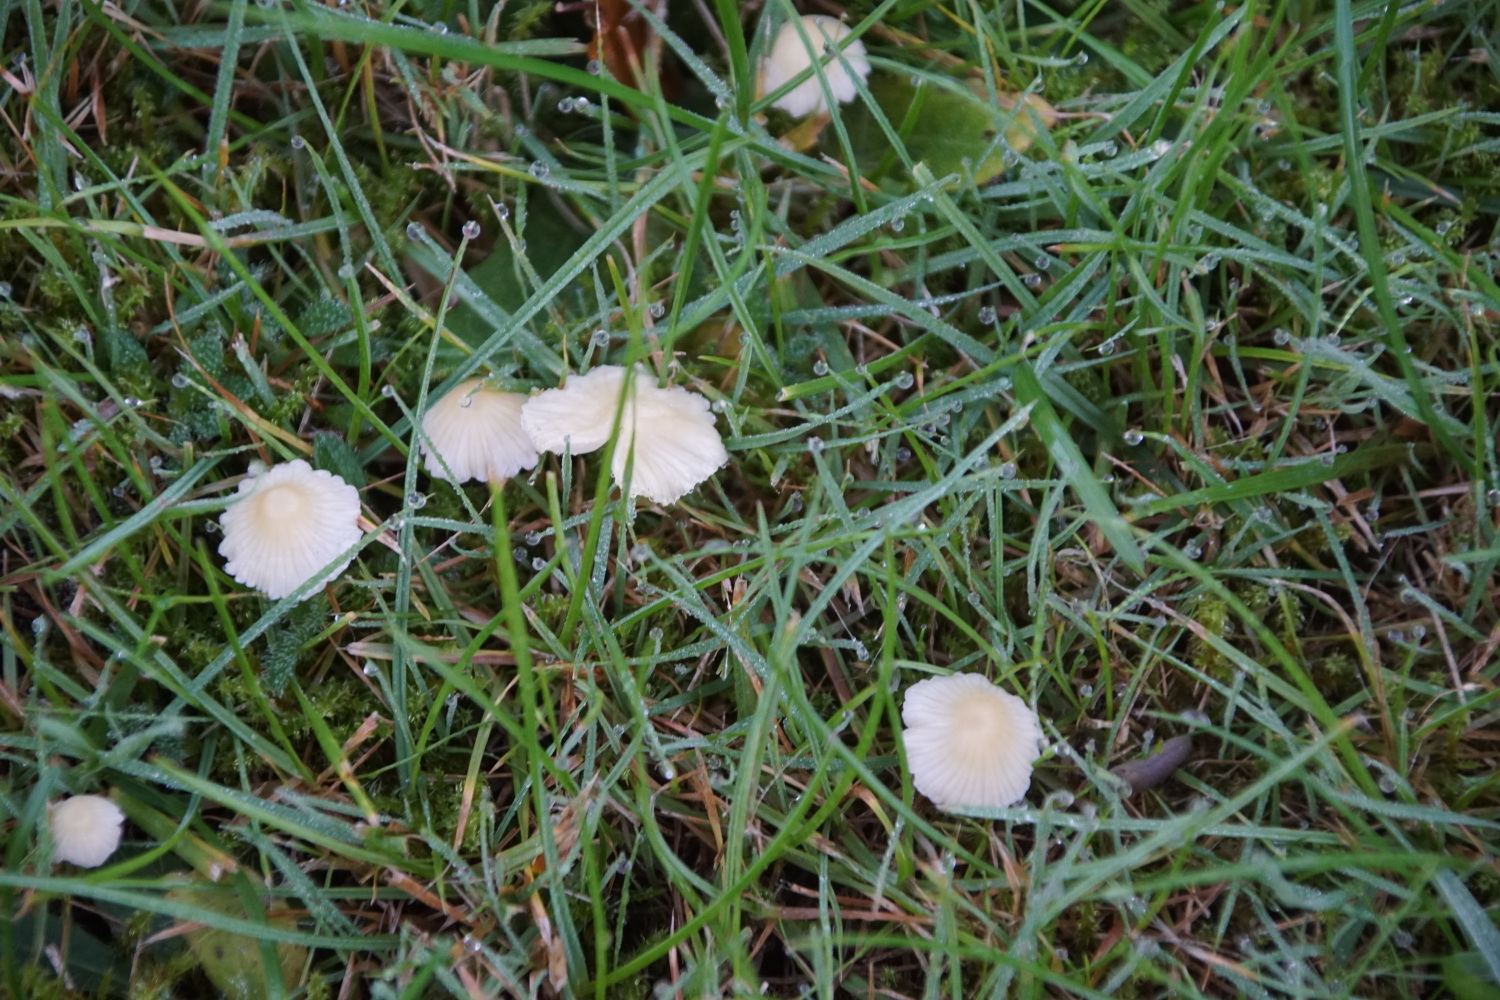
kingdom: Fungi
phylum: Basidiomycota
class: Agaricomycetes
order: Agaricales
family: Mycenaceae
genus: Atheniella
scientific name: Atheniella flavoalba
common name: gulhvid huesvamp
